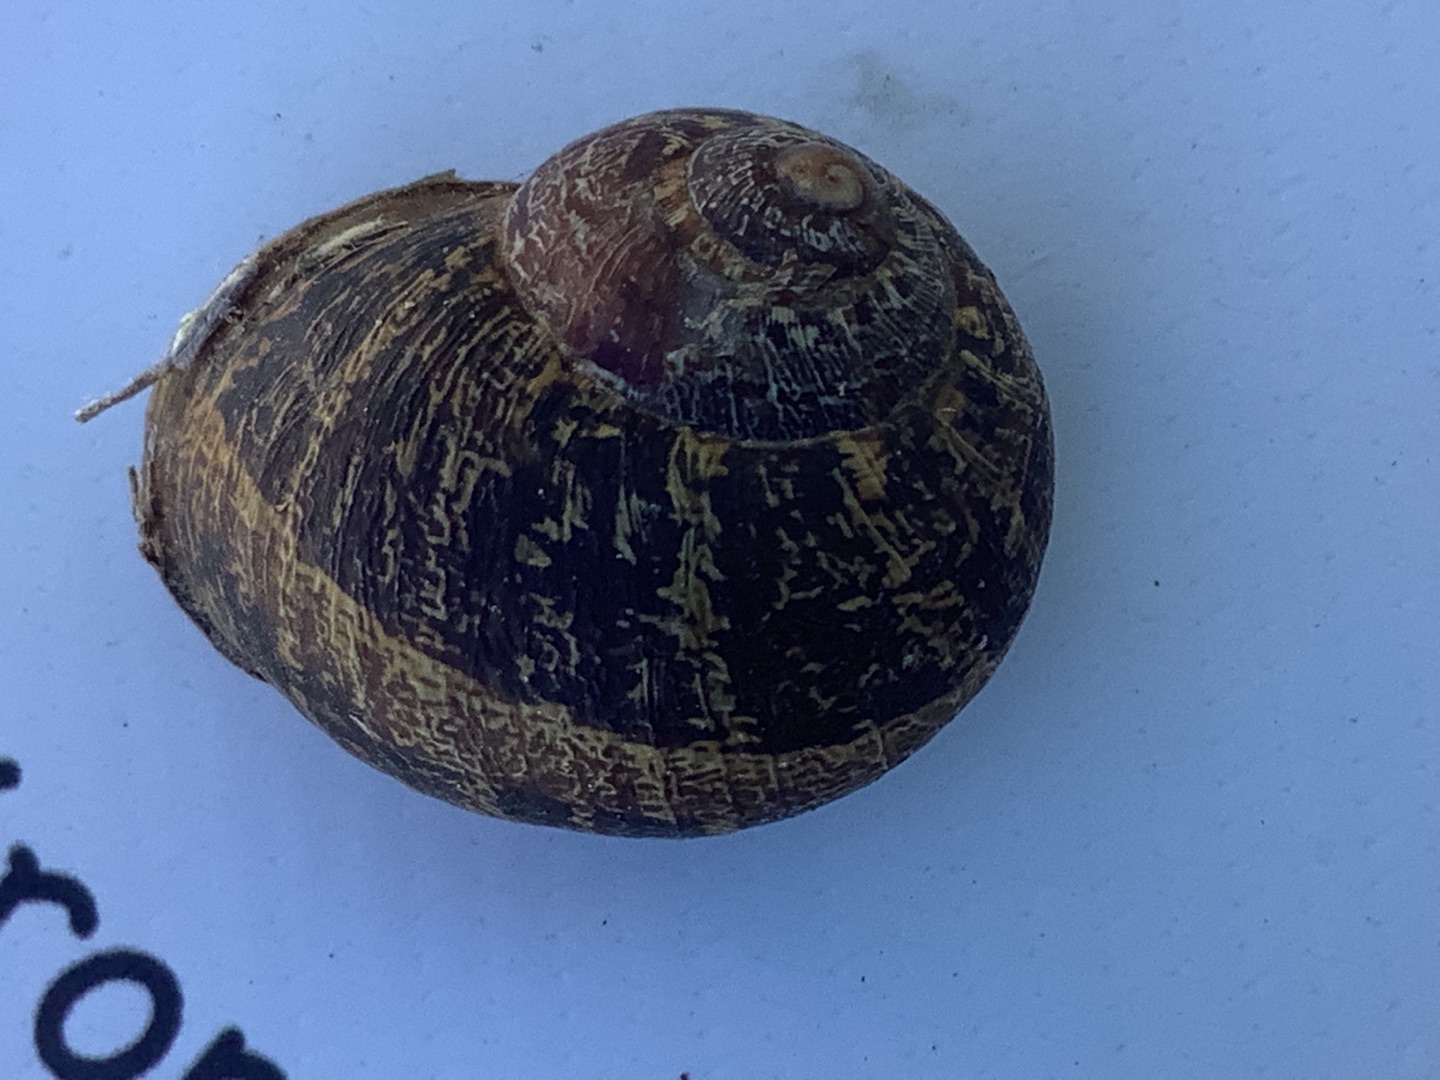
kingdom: Animalia
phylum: Mollusca
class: Gastropoda
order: Stylommatophora
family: Helicidae
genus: Cornu
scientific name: Cornu aspersum
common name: Plettet voldsnegl
